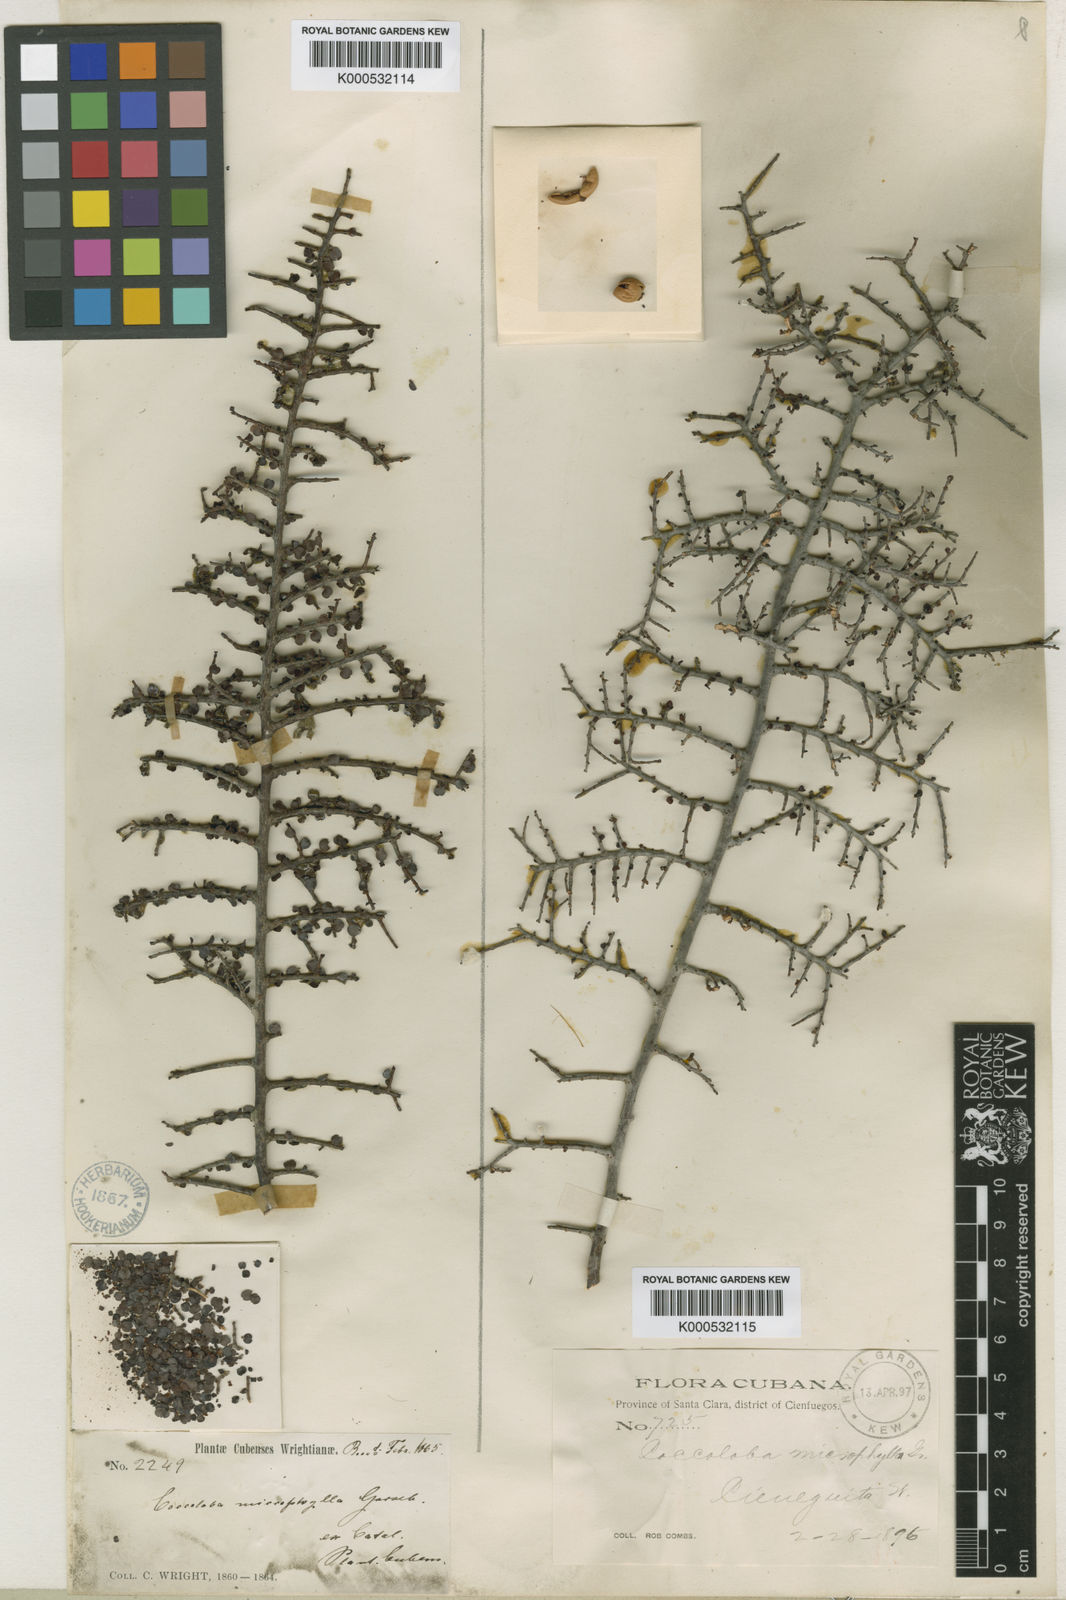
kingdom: Plantae
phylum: Tracheophyta
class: Magnoliopsida
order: Caryophyllales
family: Polygonaceae
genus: Coccoloba
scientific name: Coccoloba microphylla
